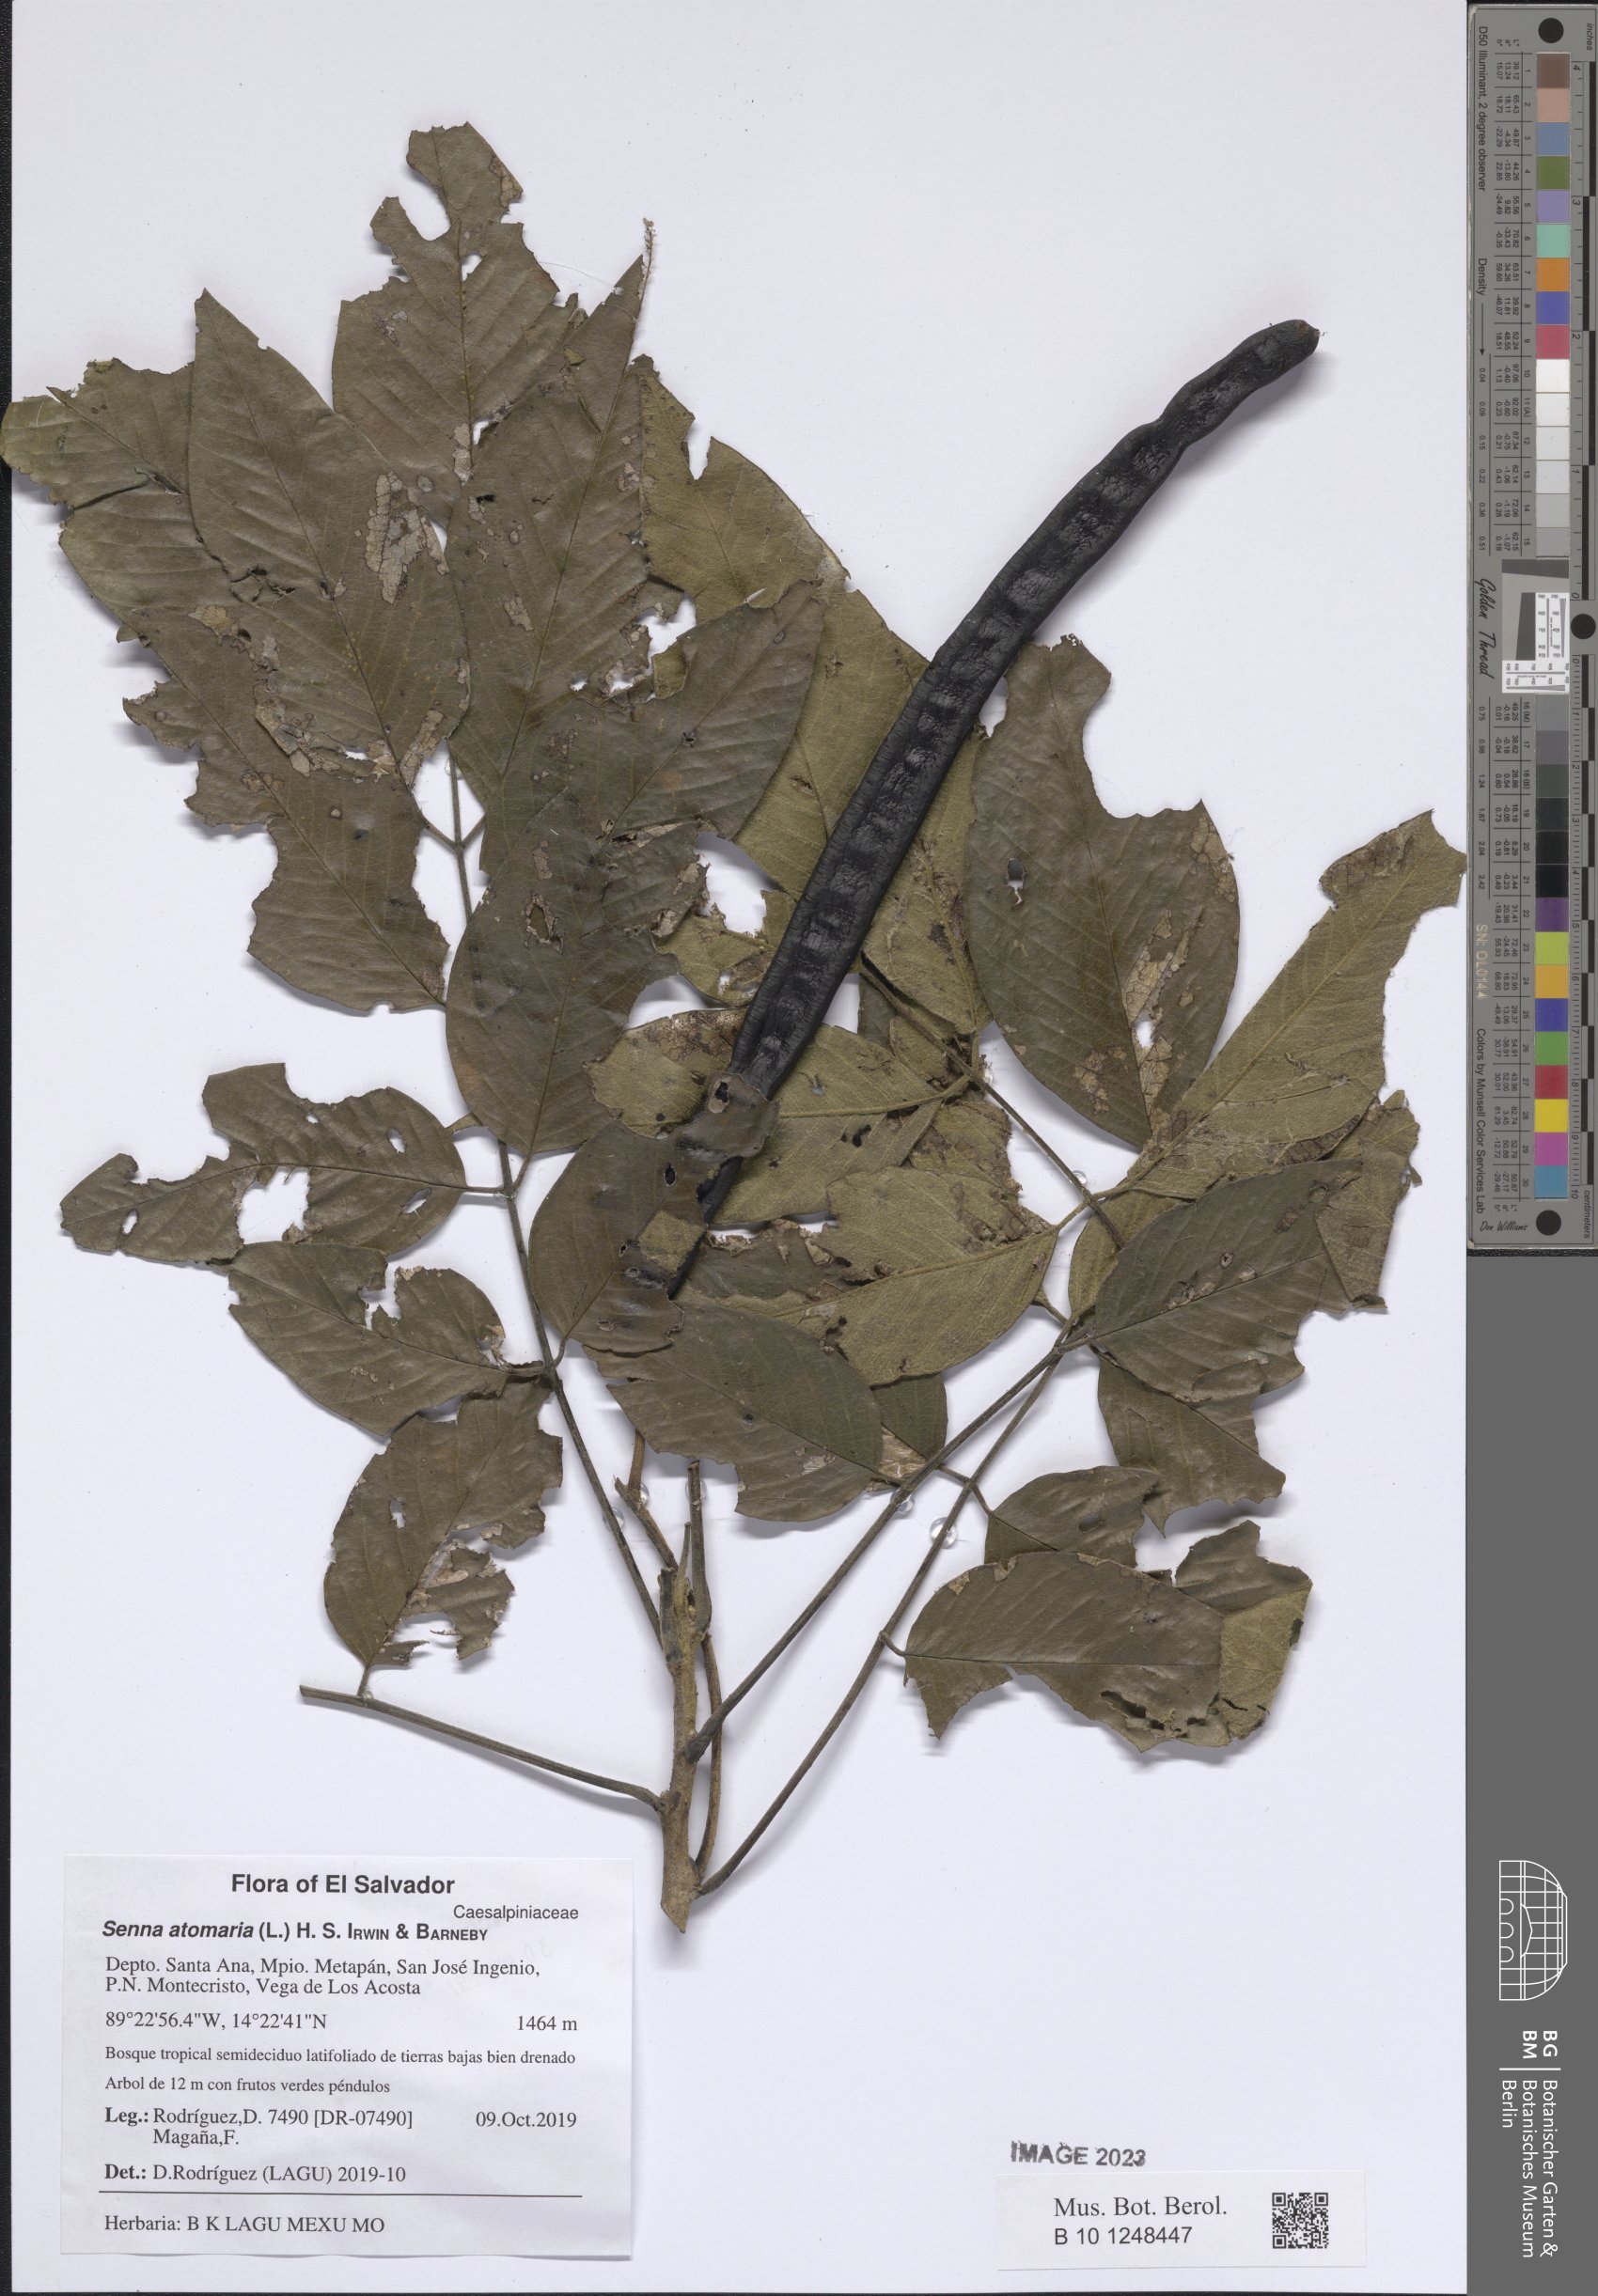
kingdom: Plantae
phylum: Tracheophyta
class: Magnoliopsida
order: Fabales
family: Fabaceae
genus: Senna
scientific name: Senna atomaria
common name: Flor de san jose
